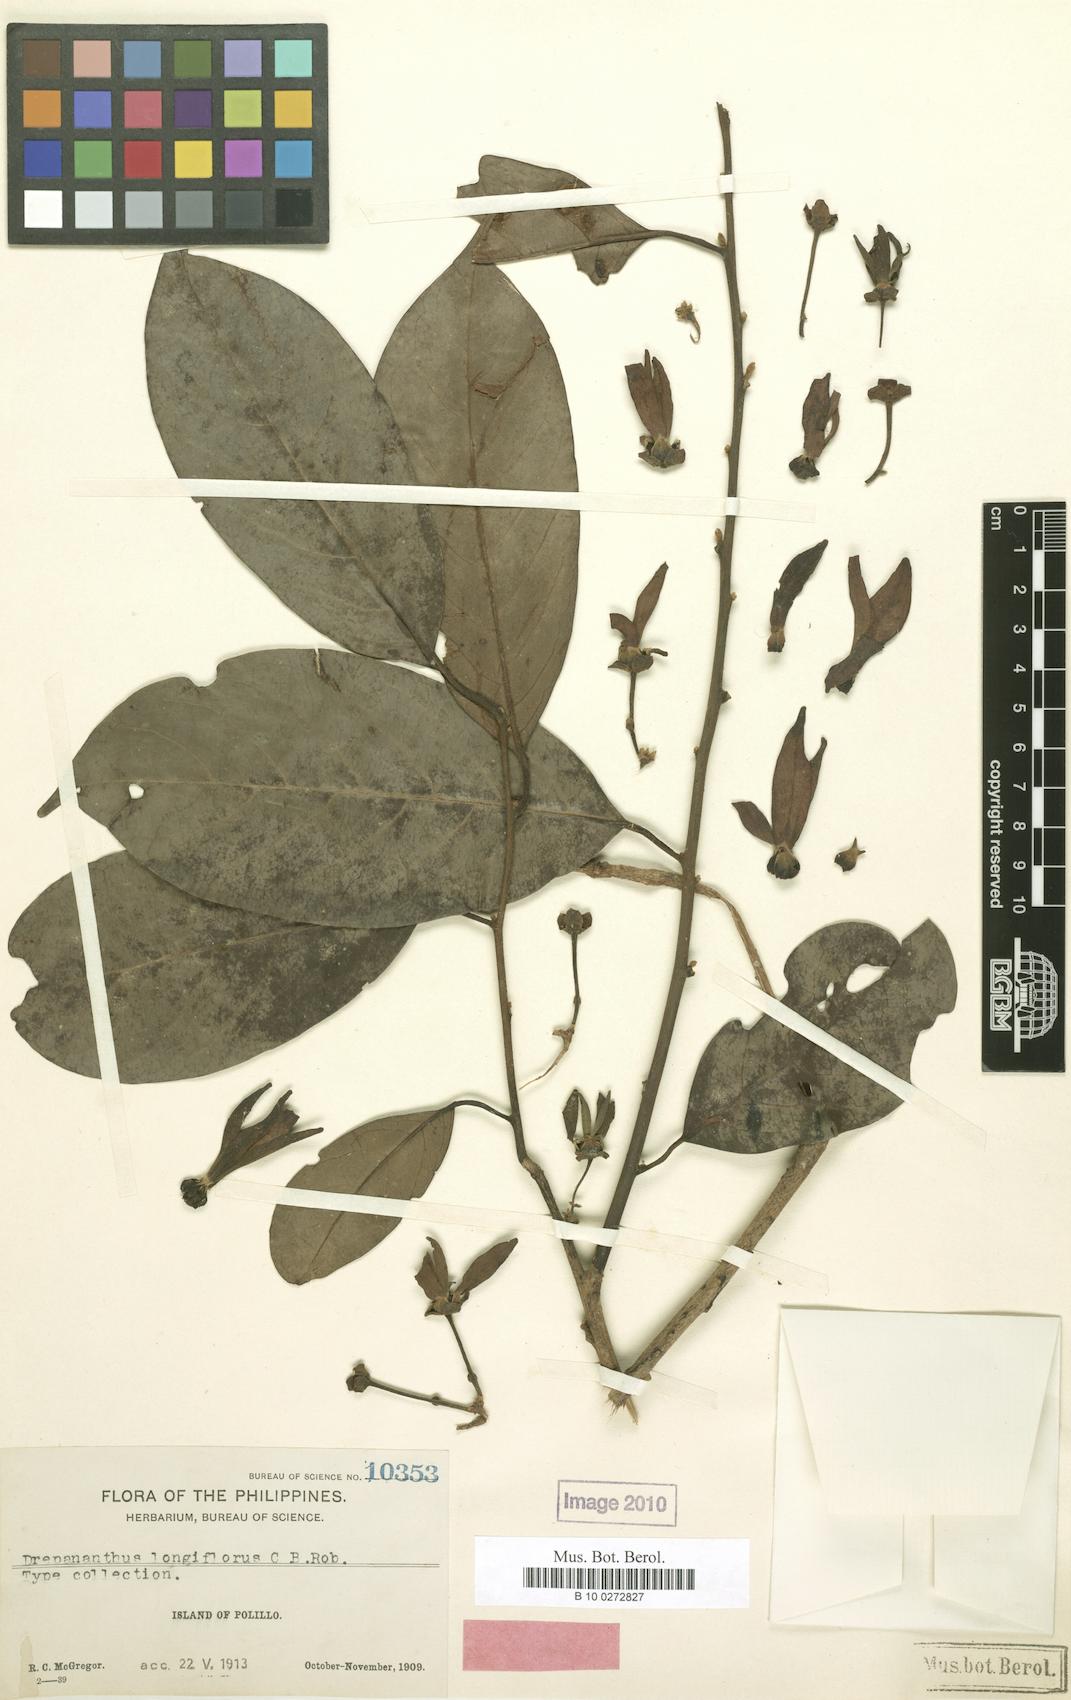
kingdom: Plantae
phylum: Tracheophyta
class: Magnoliopsida
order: Magnoliales
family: Annonaceae
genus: Drepananthus
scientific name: Drepananthus acuminatus
